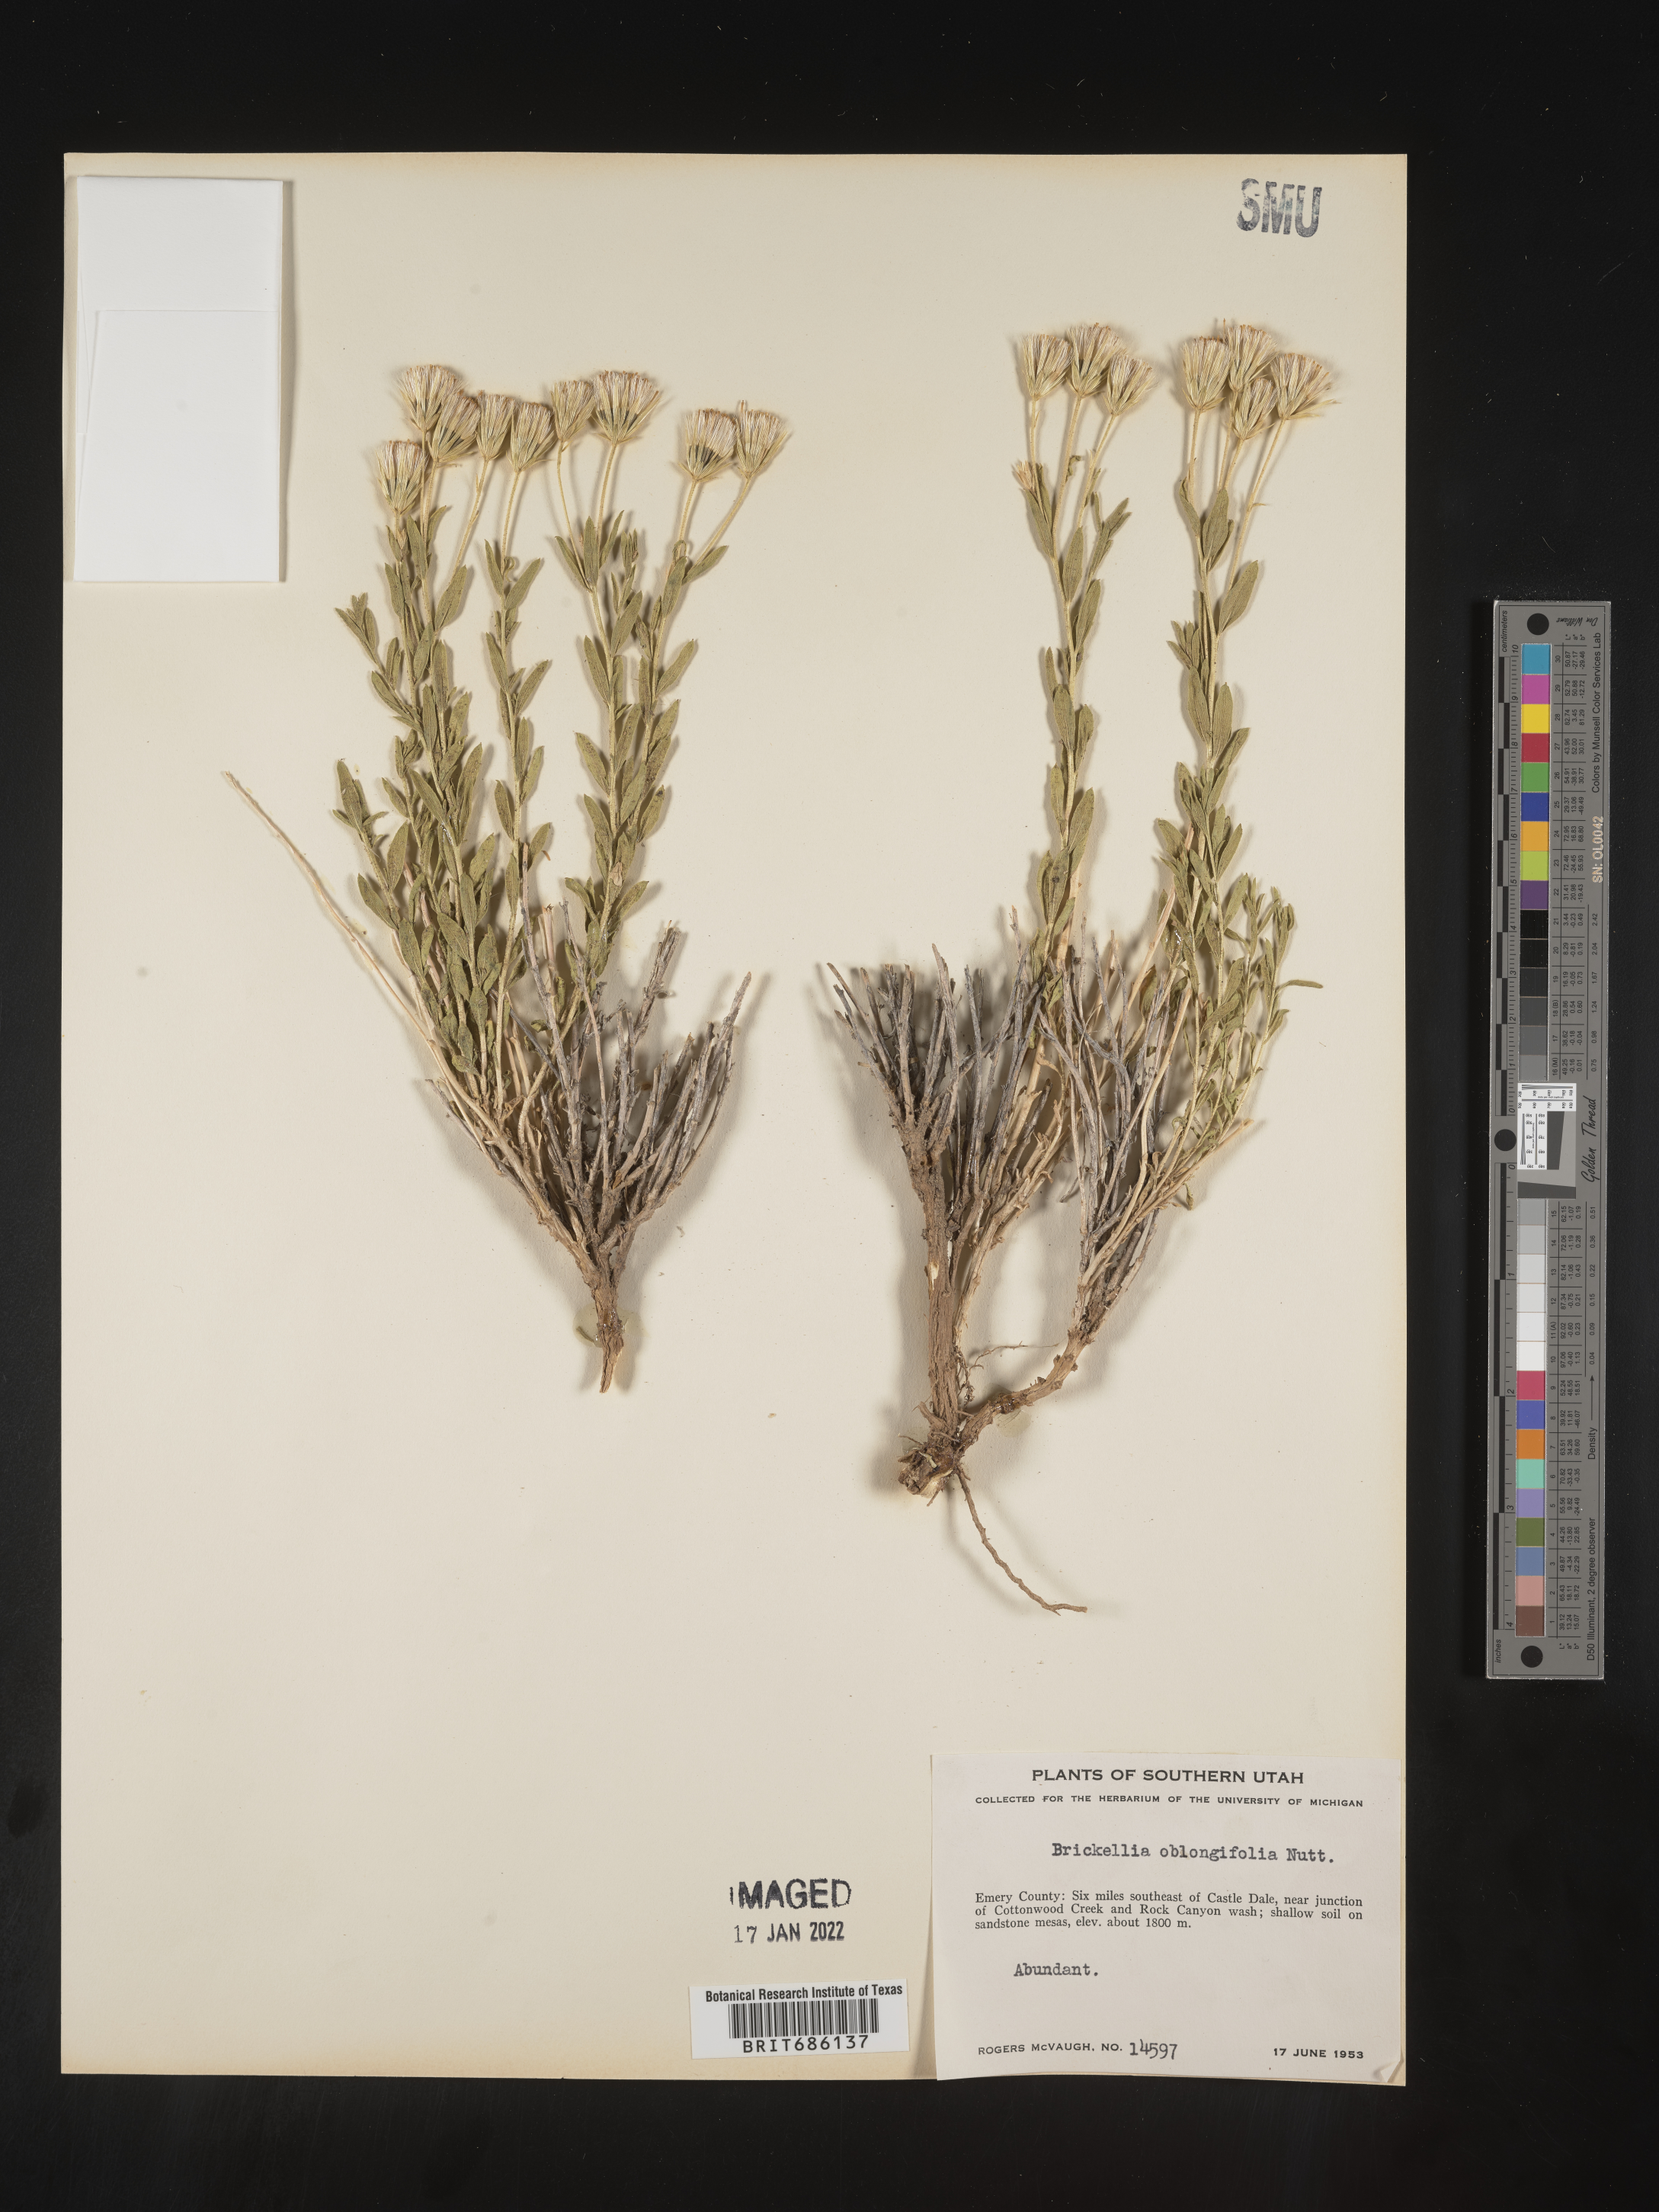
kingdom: Plantae
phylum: Tracheophyta
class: Magnoliopsida
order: Asterales
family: Asteraceae
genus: Brickellia
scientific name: Brickellia oblongifolia
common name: Mojave brickellbush
